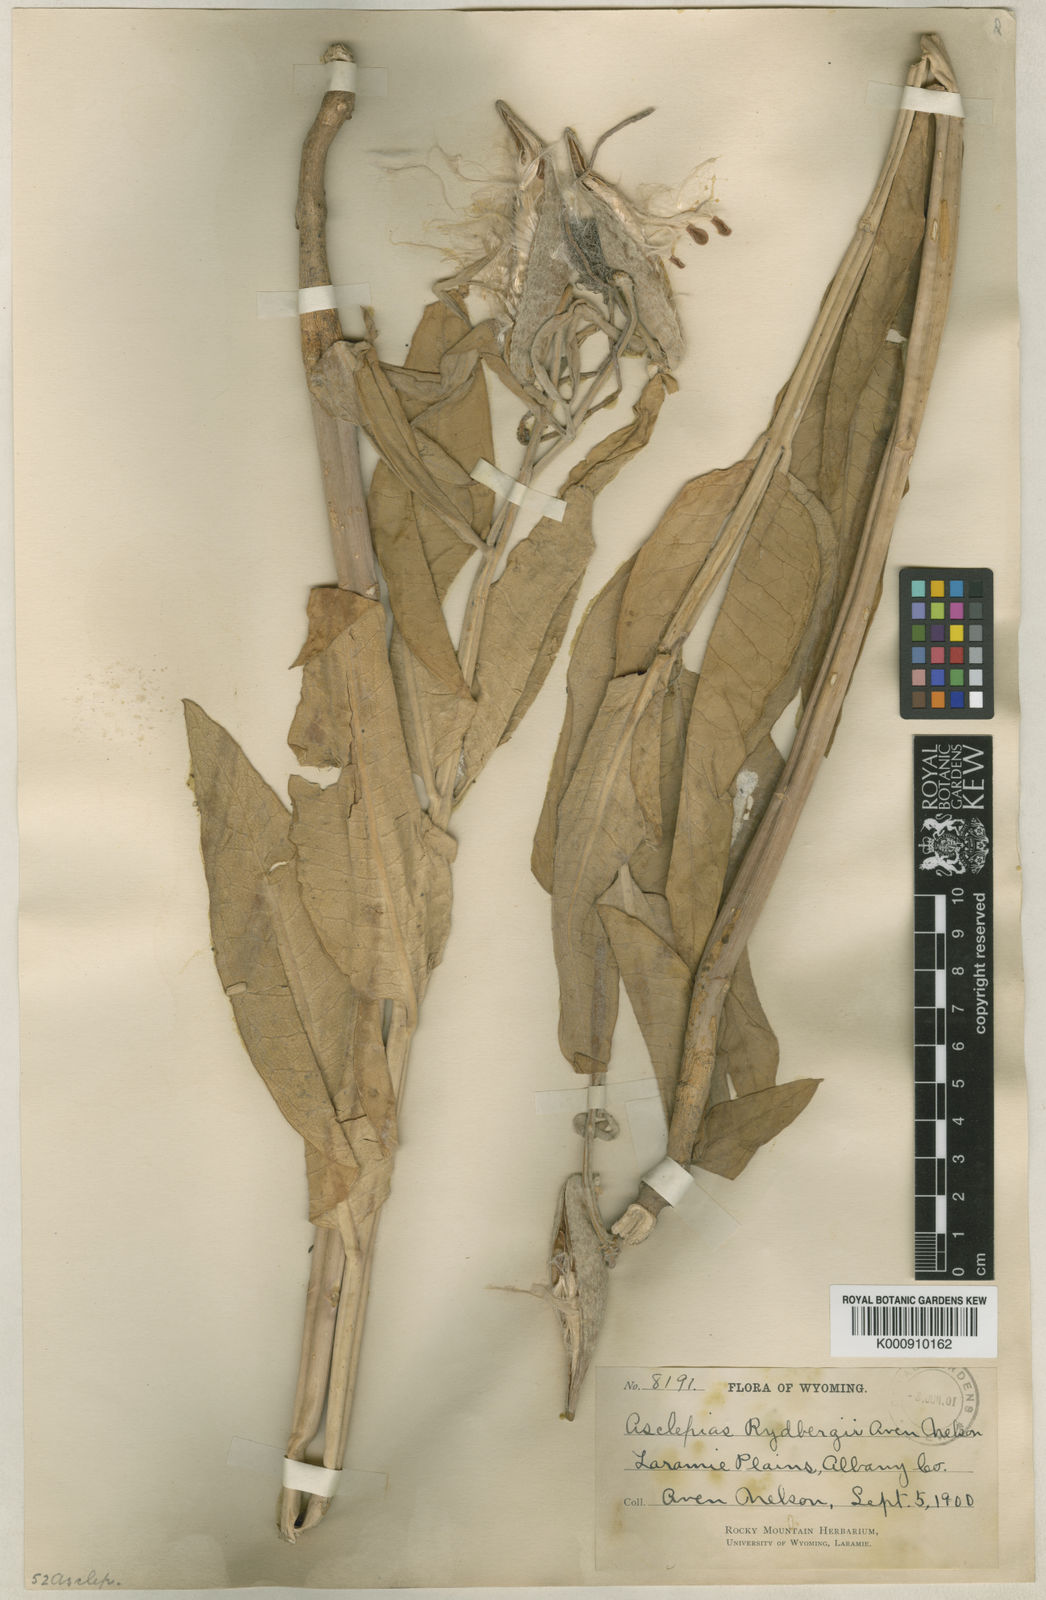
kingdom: Plantae
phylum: Tracheophyta
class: Magnoliopsida
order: Gentianales
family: Apocynaceae
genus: Asclepias
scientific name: Asclepias speciosa
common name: Showy milkweed
